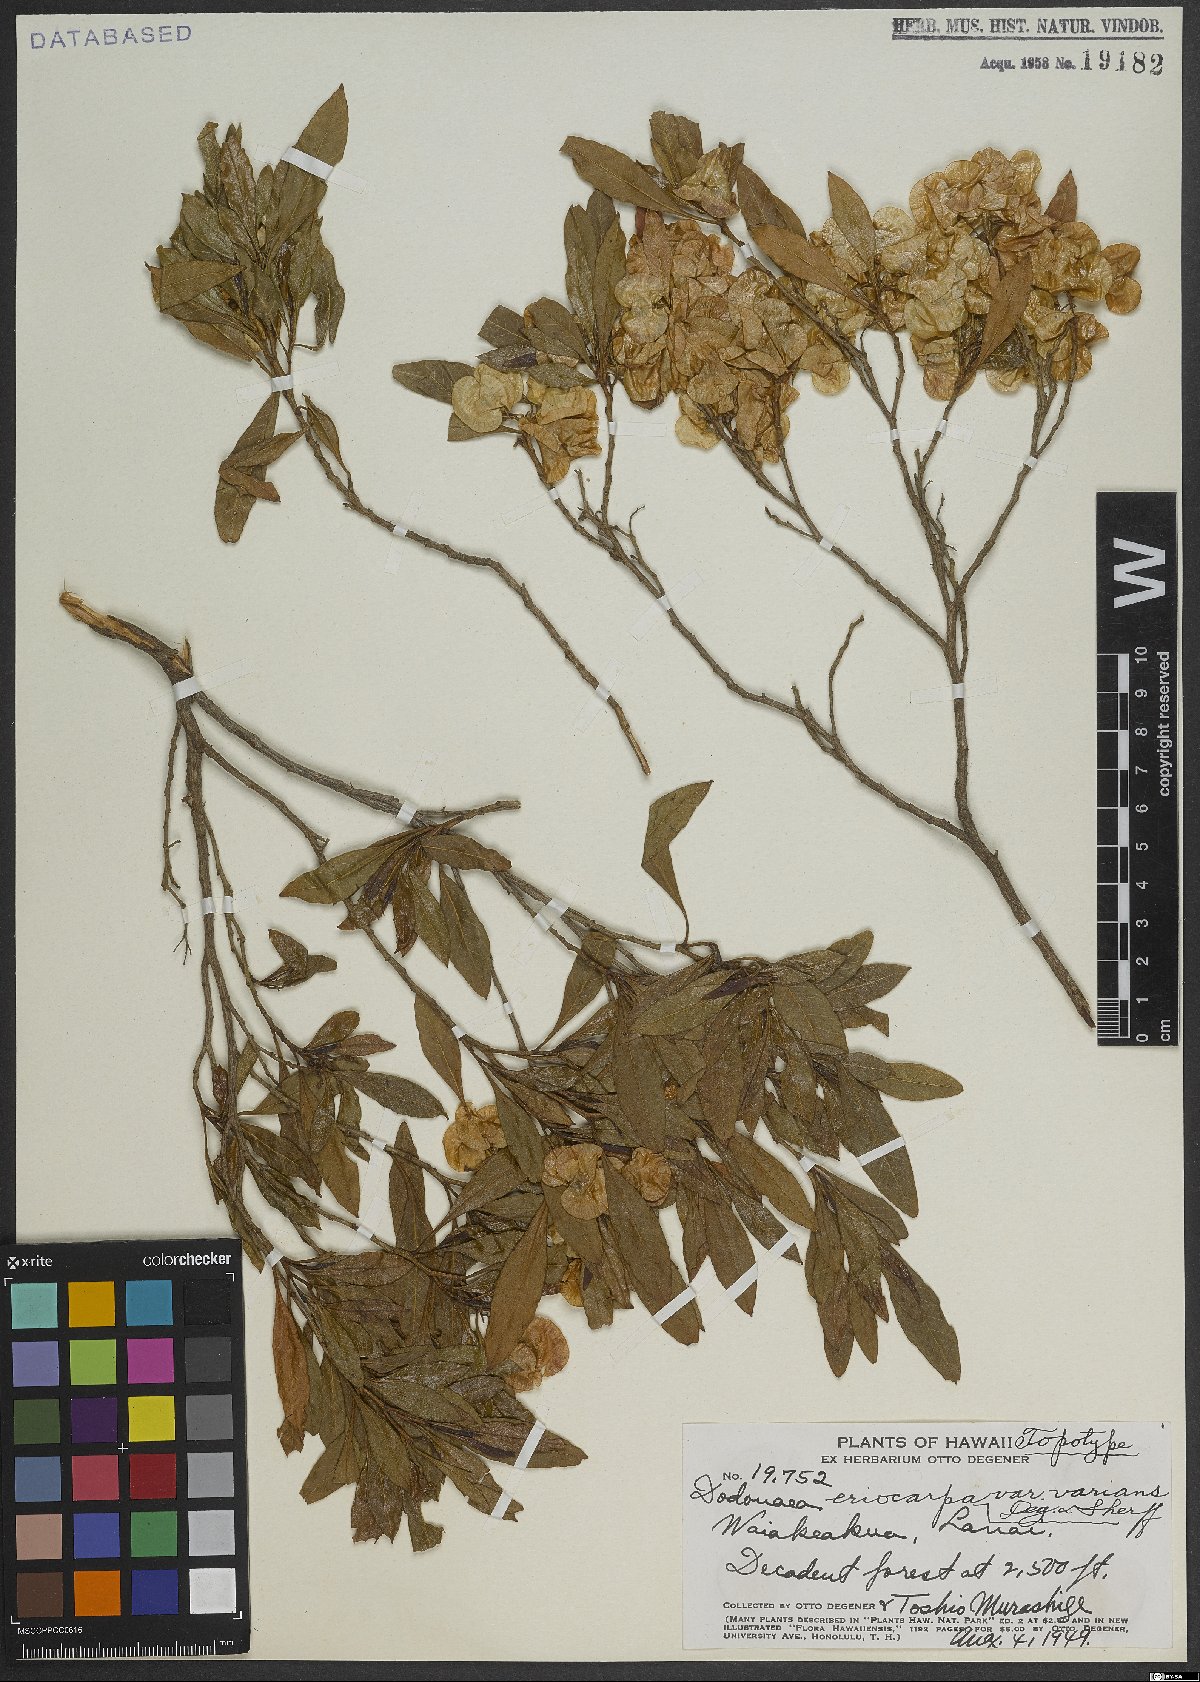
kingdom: Plantae
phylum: Tracheophyta
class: Magnoliopsida
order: Sapindales
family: Sapindaceae
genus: Dodonaea
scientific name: Dodonaea viscosa
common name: Hopbush
